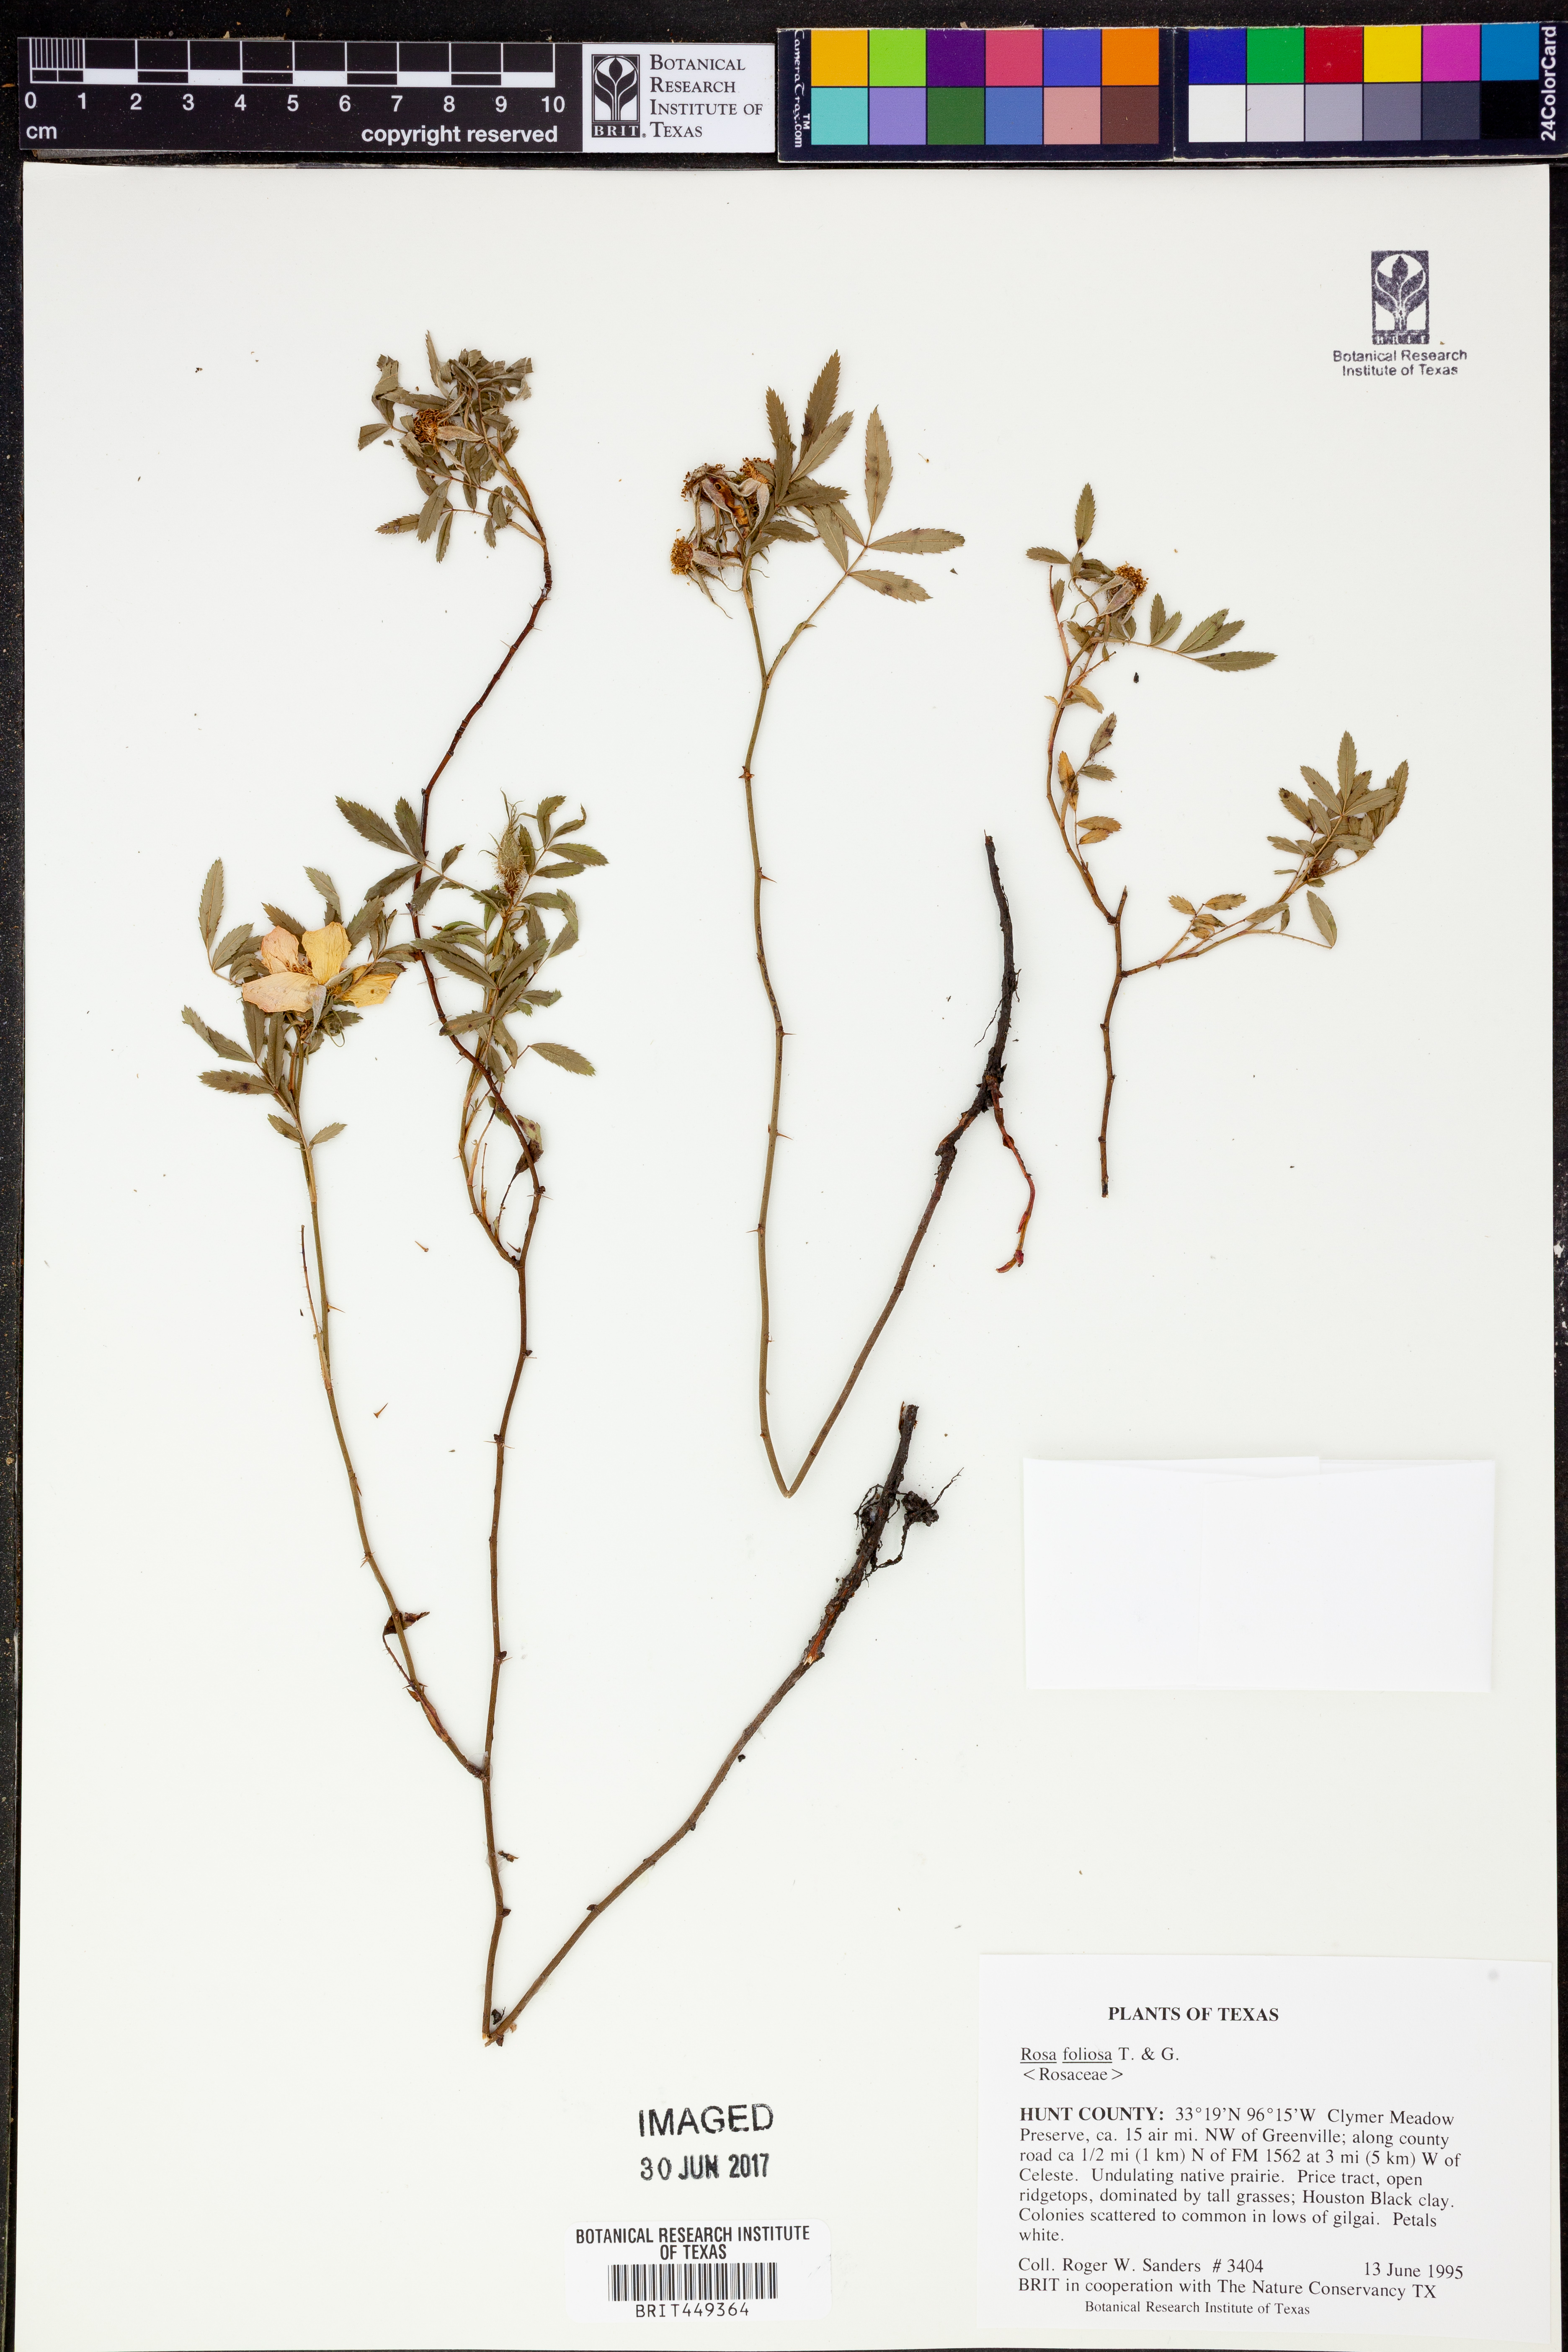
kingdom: Plantae
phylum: Tracheophyta
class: Magnoliopsida
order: Rosales
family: Rosaceae
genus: Rosa
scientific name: Rosa foliolosa
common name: White prairie rose
